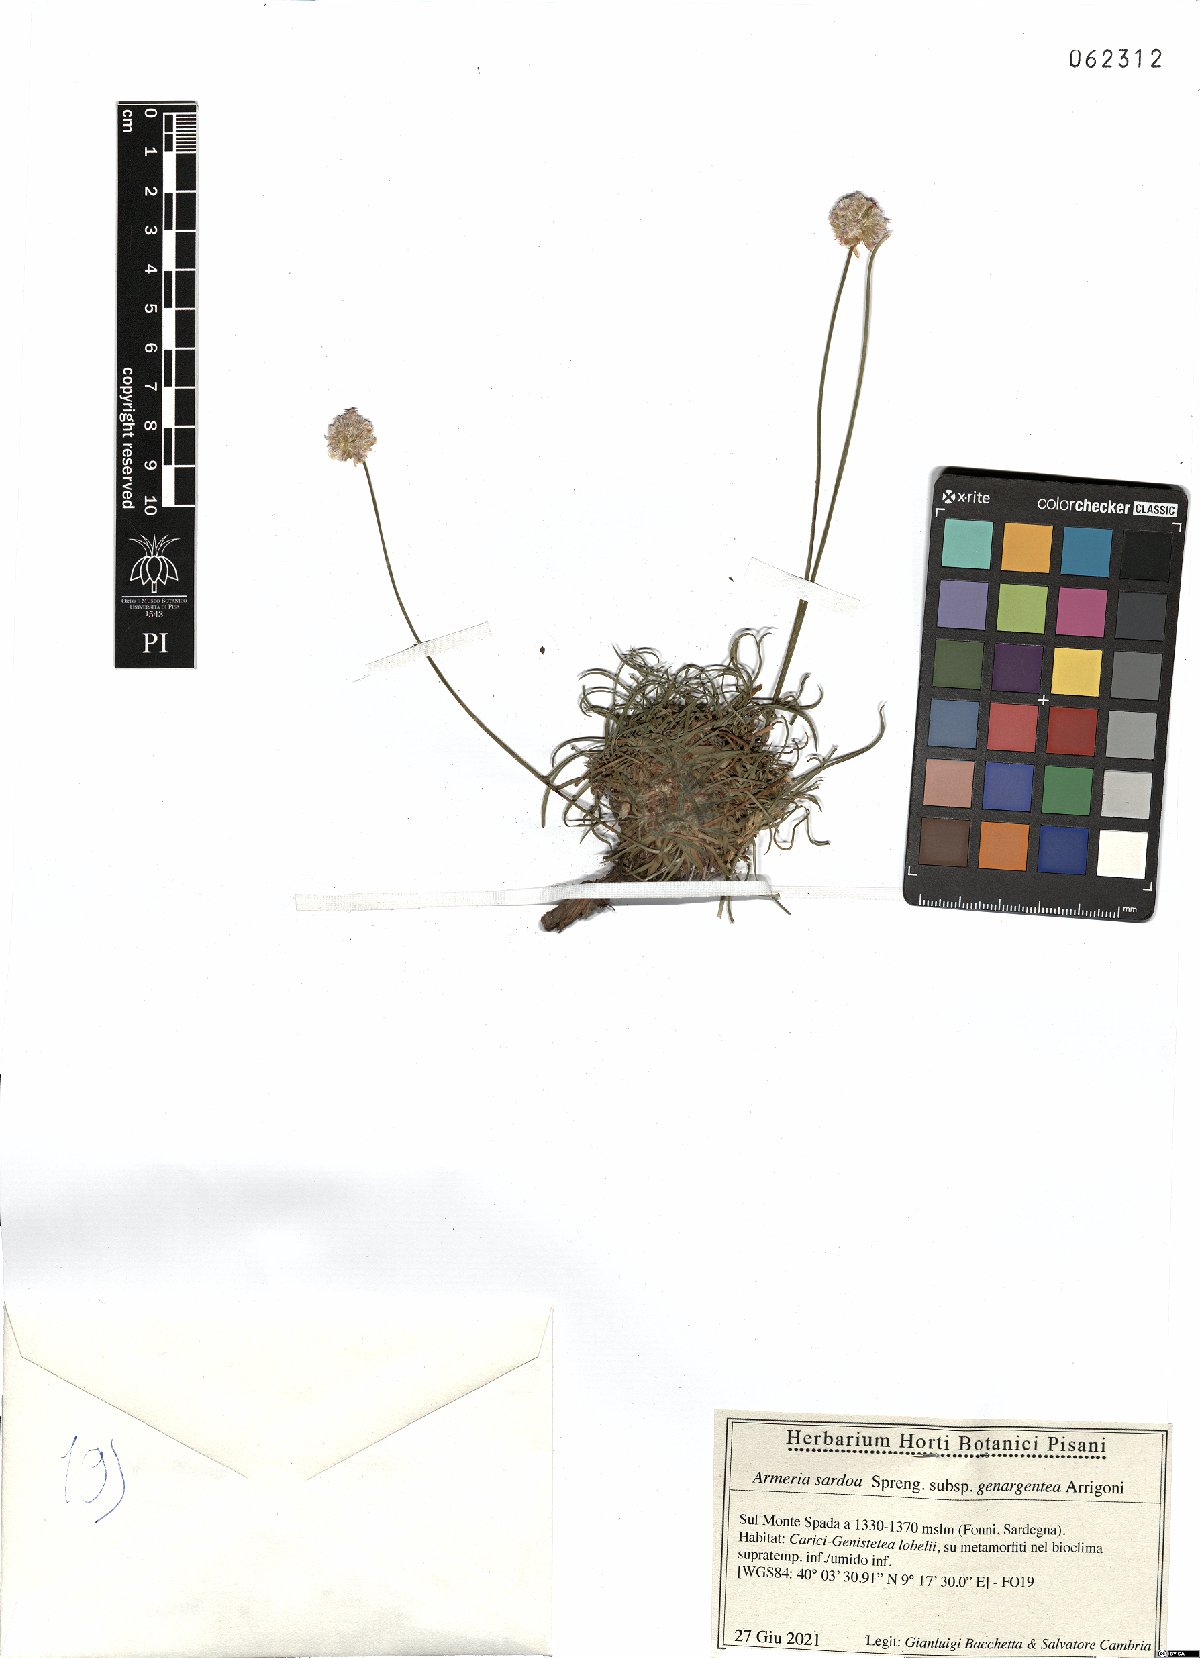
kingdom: Plantae
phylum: Tracheophyta
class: Magnoliopsida
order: Caryophyllales
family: Plumbaginaceae
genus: Armeria
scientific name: Armeria sardoa
